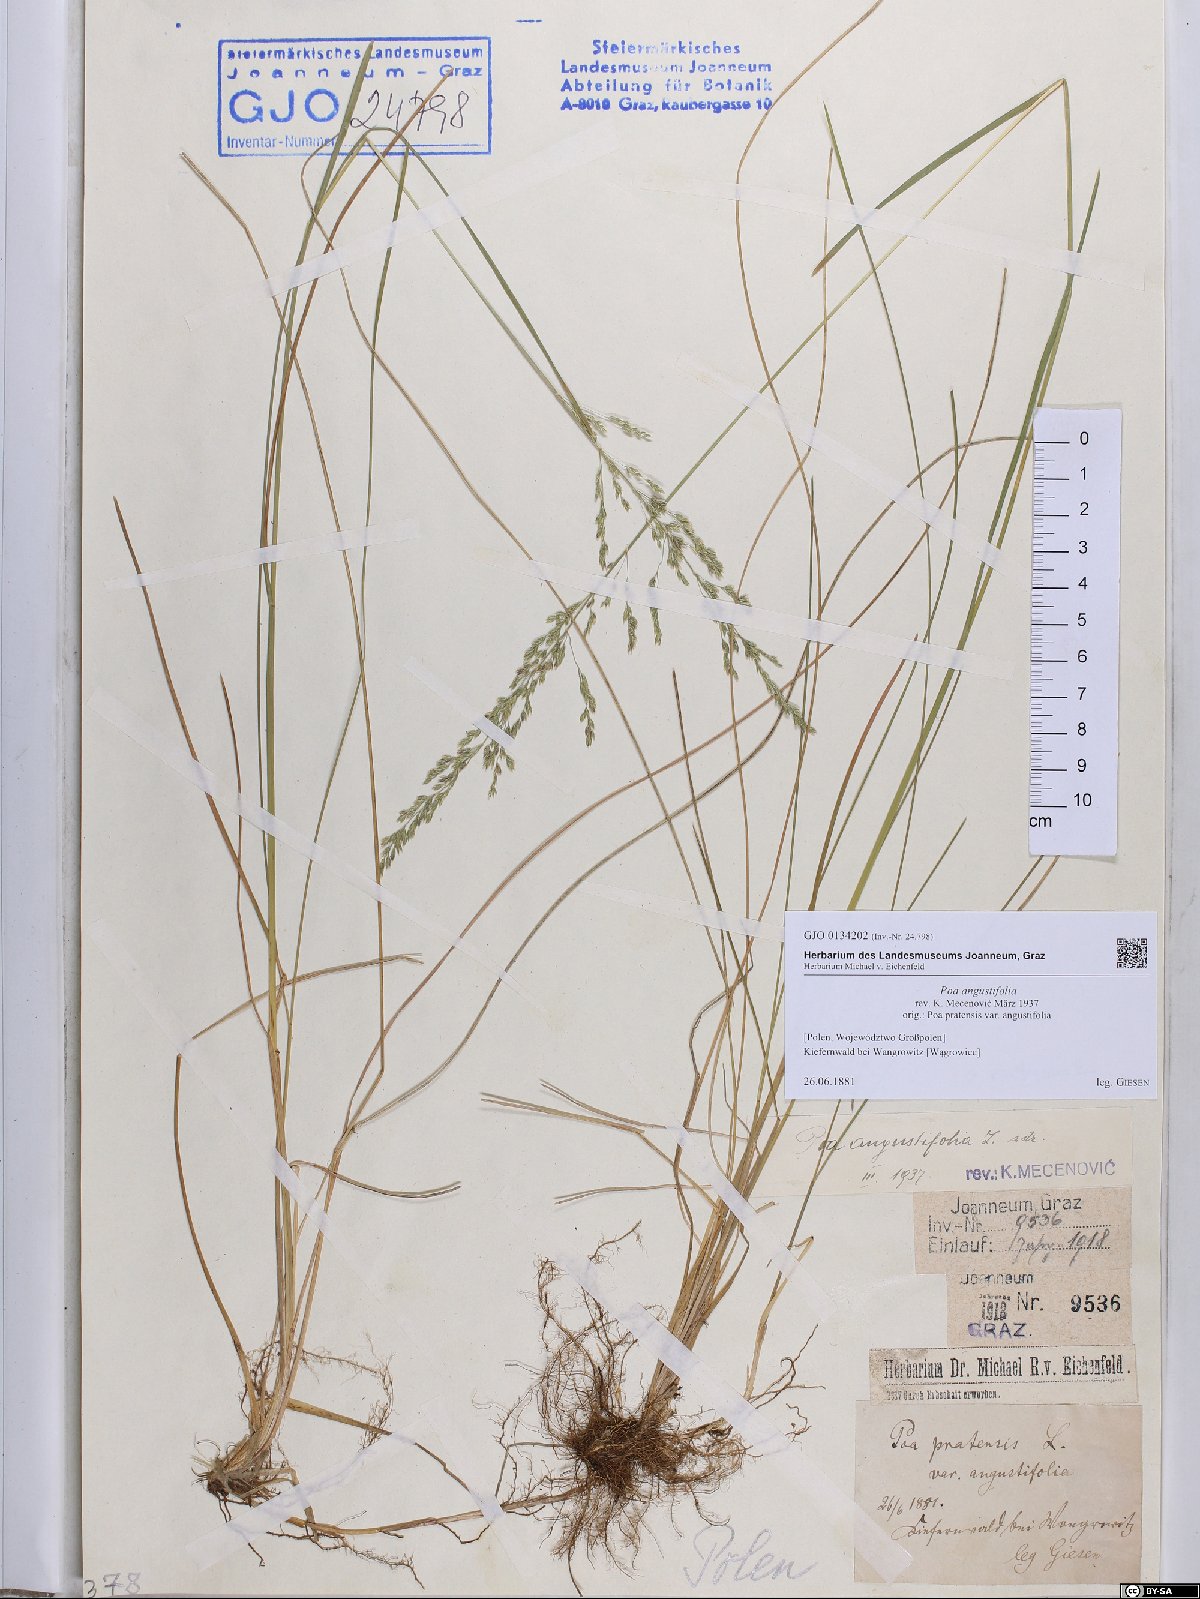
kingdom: Plantae
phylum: Tracheophyta
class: Liliopsida
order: Poales
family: Poaceae
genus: Poa
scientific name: Poa angustifolia
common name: Narrow-leaved meadow-grass
